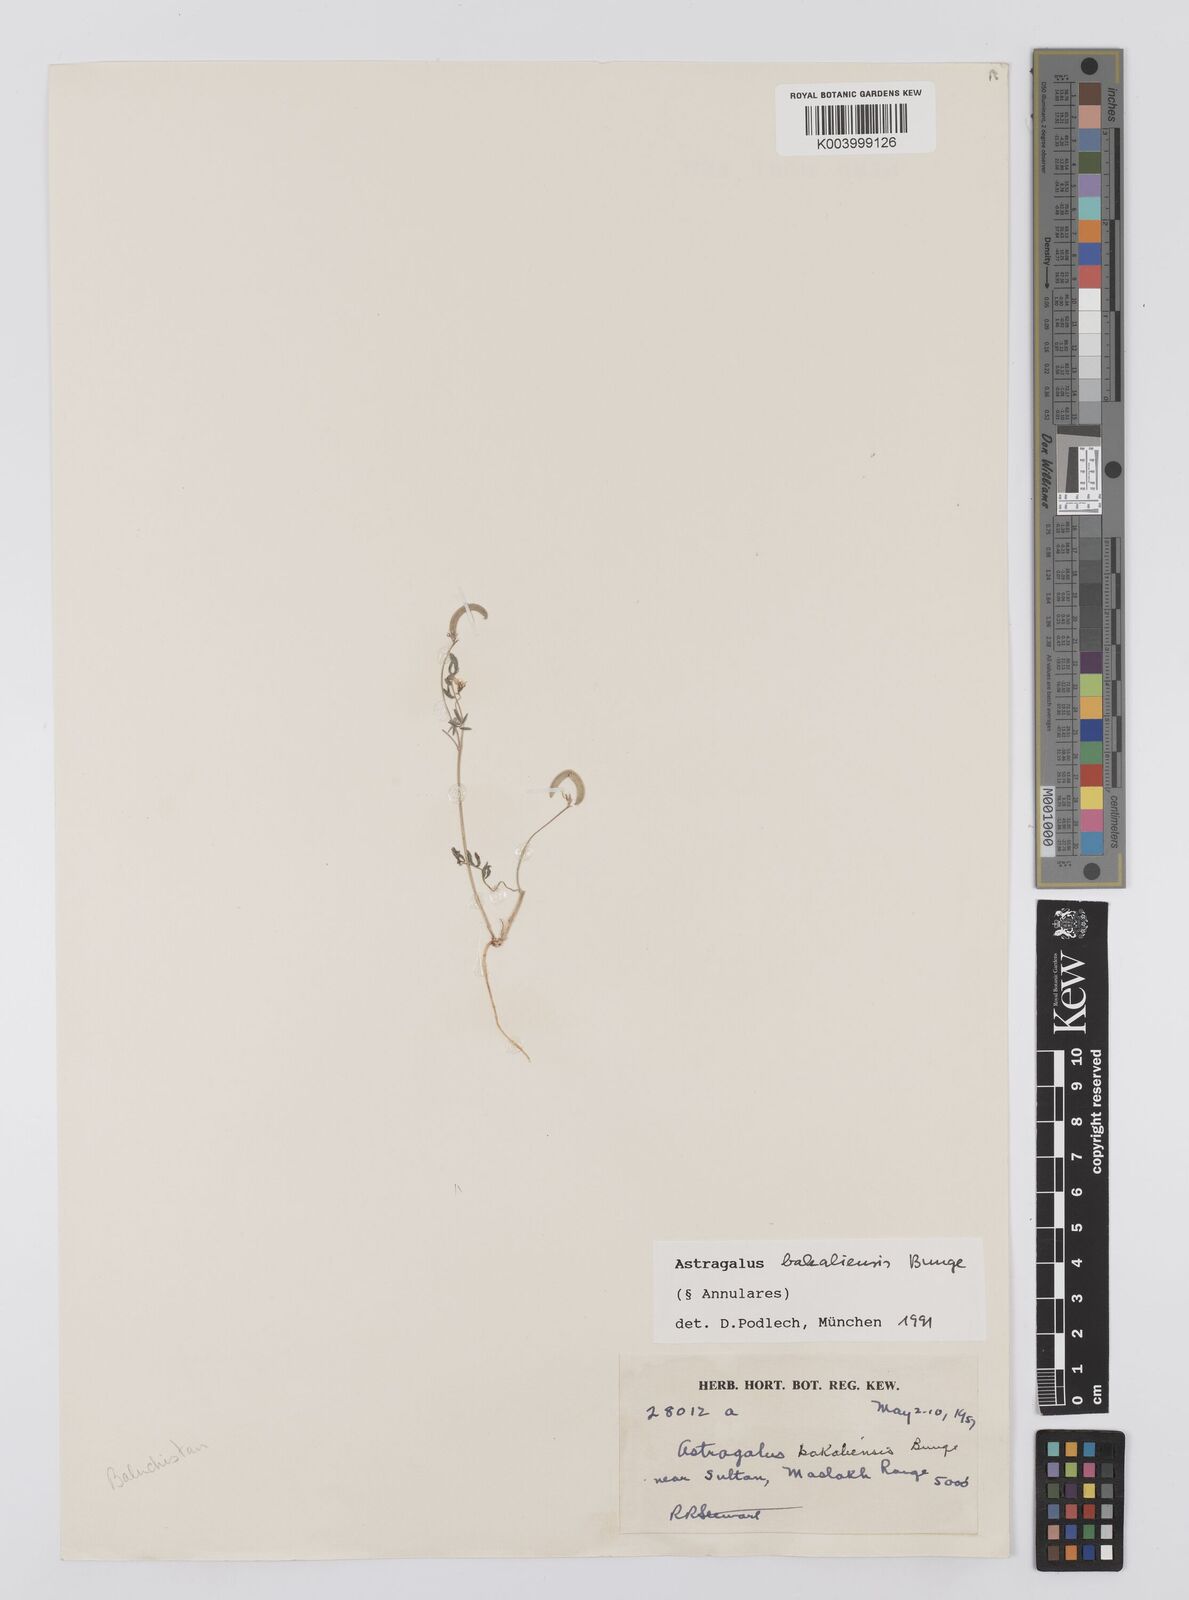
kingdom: Plantae
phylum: Tracheophyta
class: Magnoliopsida
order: Fabales
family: Fabaceae
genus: Astragalus
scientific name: Astragalus bakaliensis
